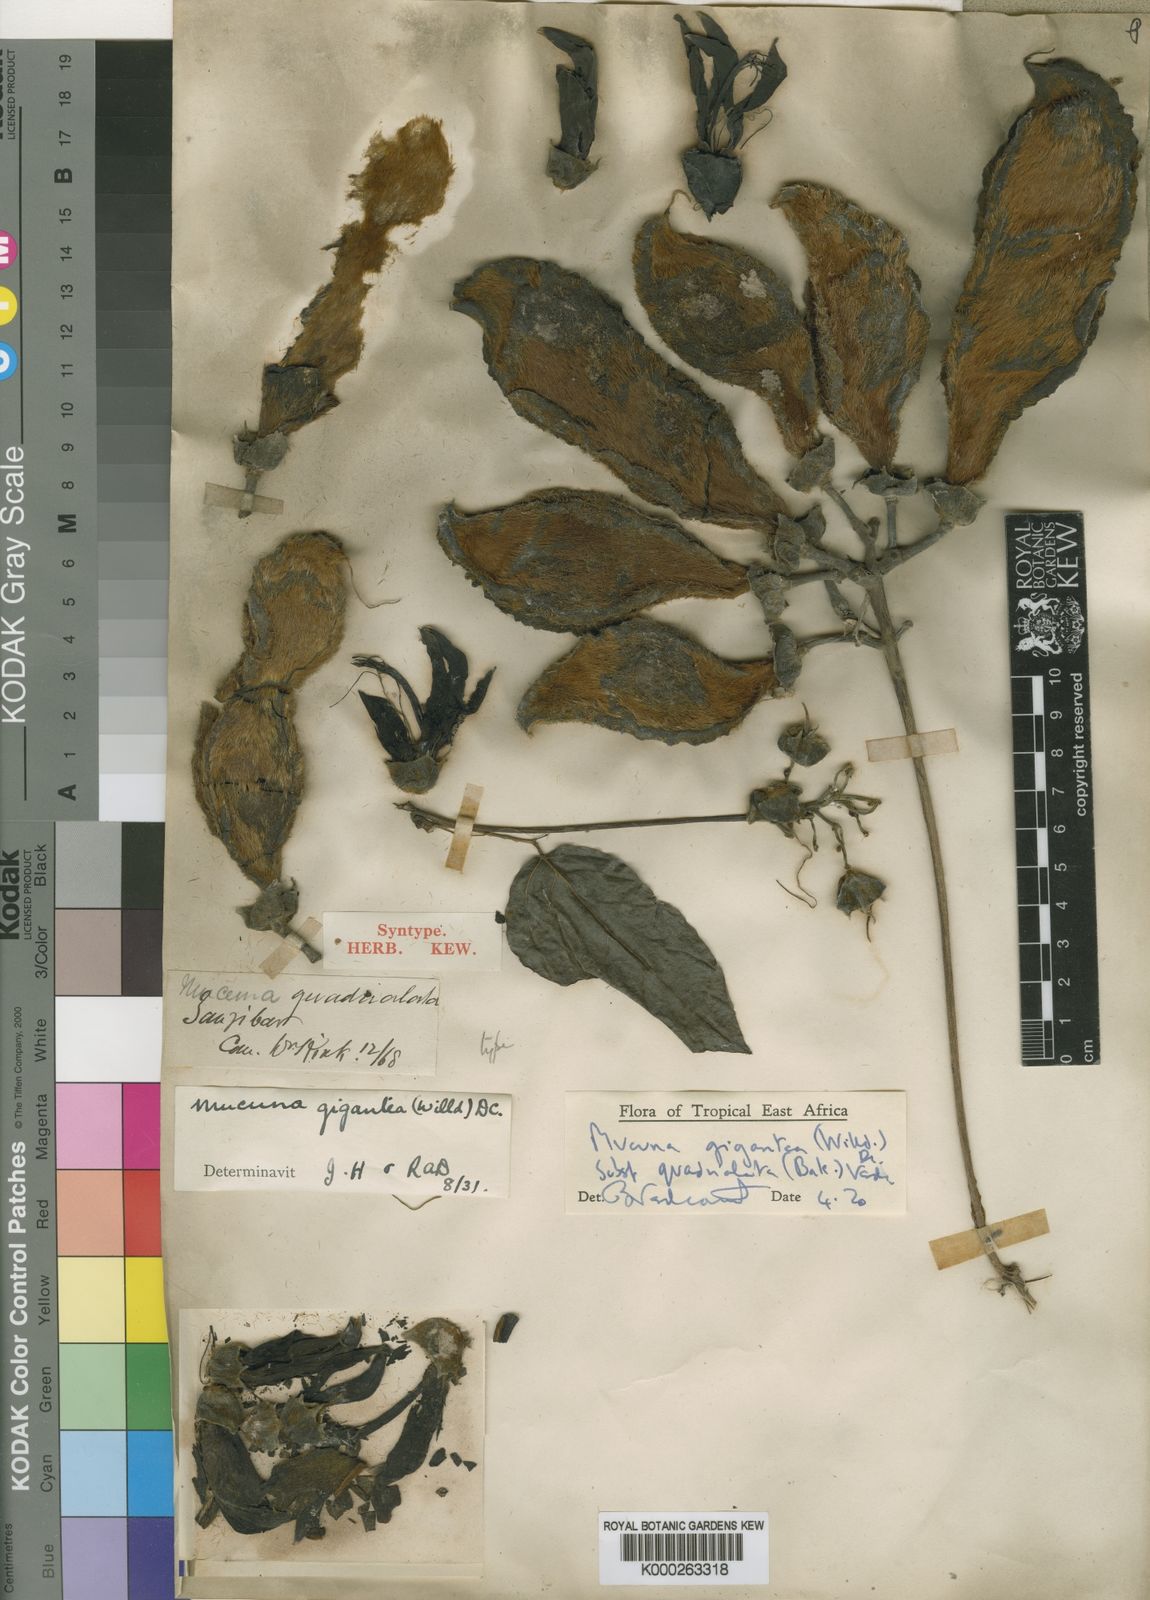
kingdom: Plantae
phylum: Tracheophyta
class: Magnoliopsida
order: Fabales
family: Fabaceae
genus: Mucuna
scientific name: Mucuna gigantea
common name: Black-bean
